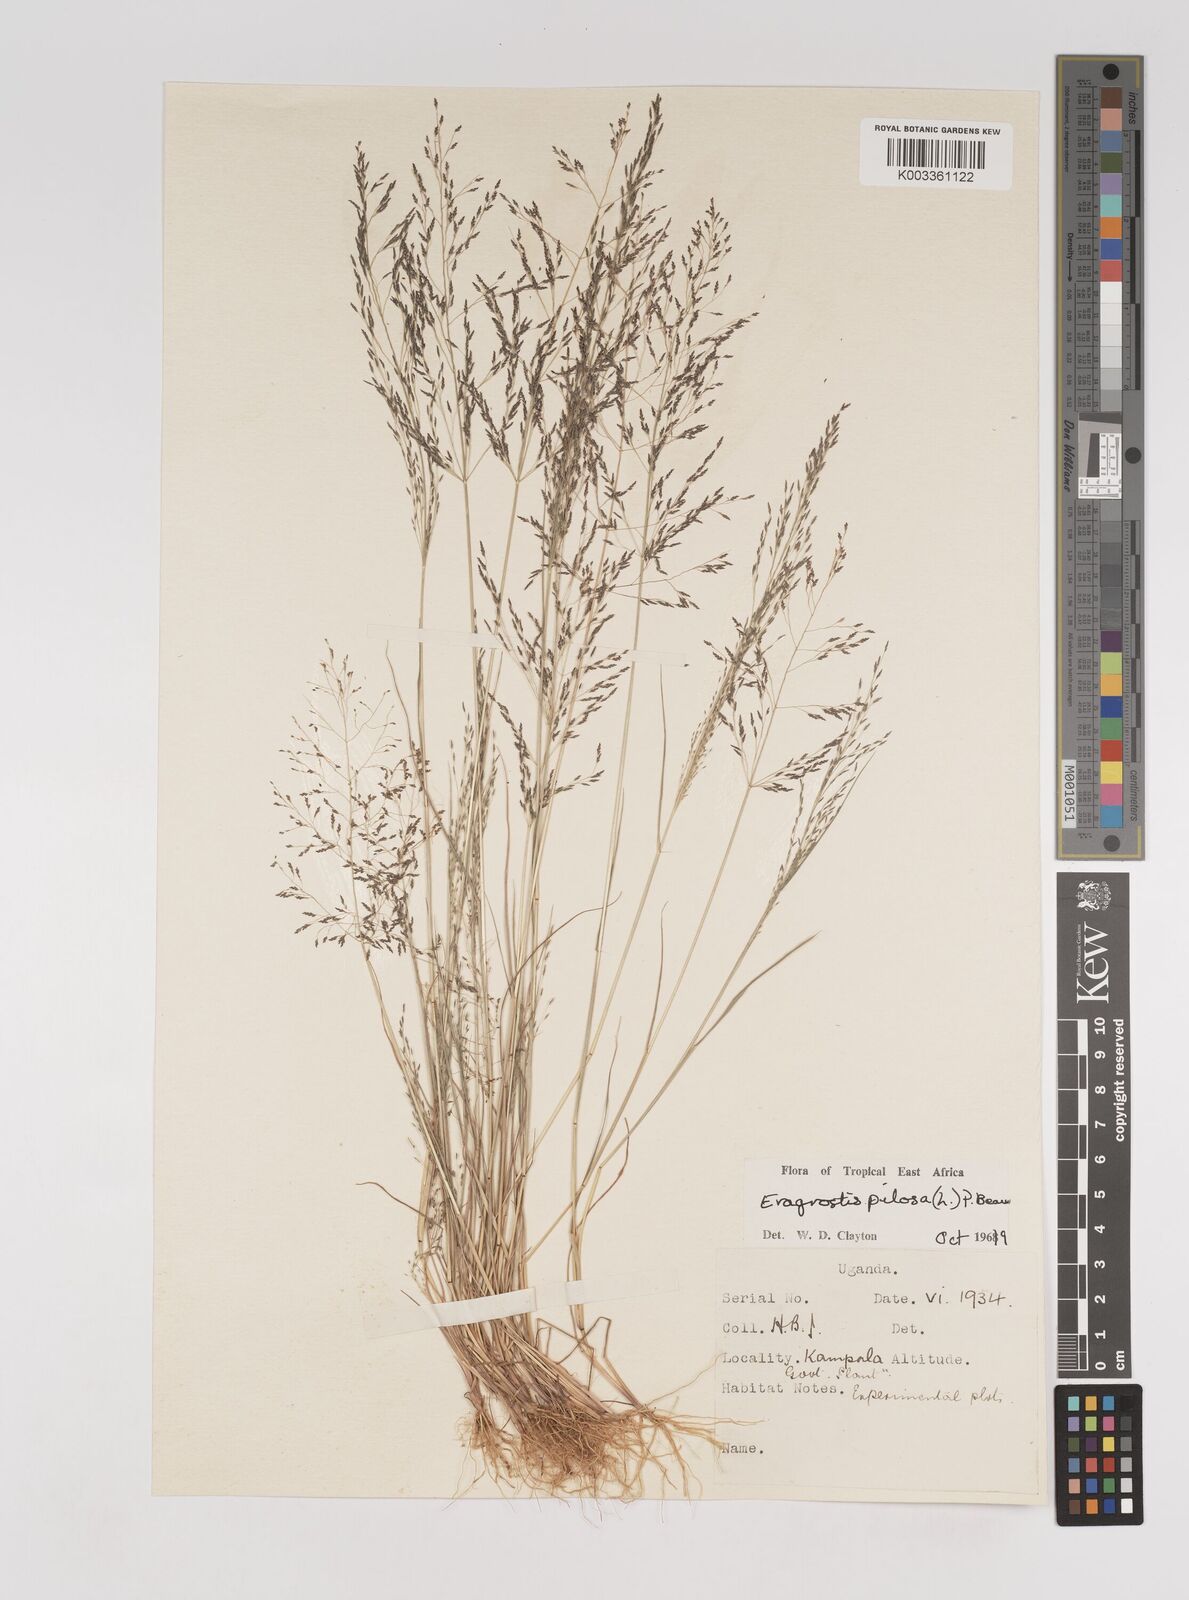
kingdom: Plantae
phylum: Tracheophyta
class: Liliopsida
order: Poales
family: Poaceae
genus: Eragrostis
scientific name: Eragrostis pilosa
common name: Indian lovegrass
